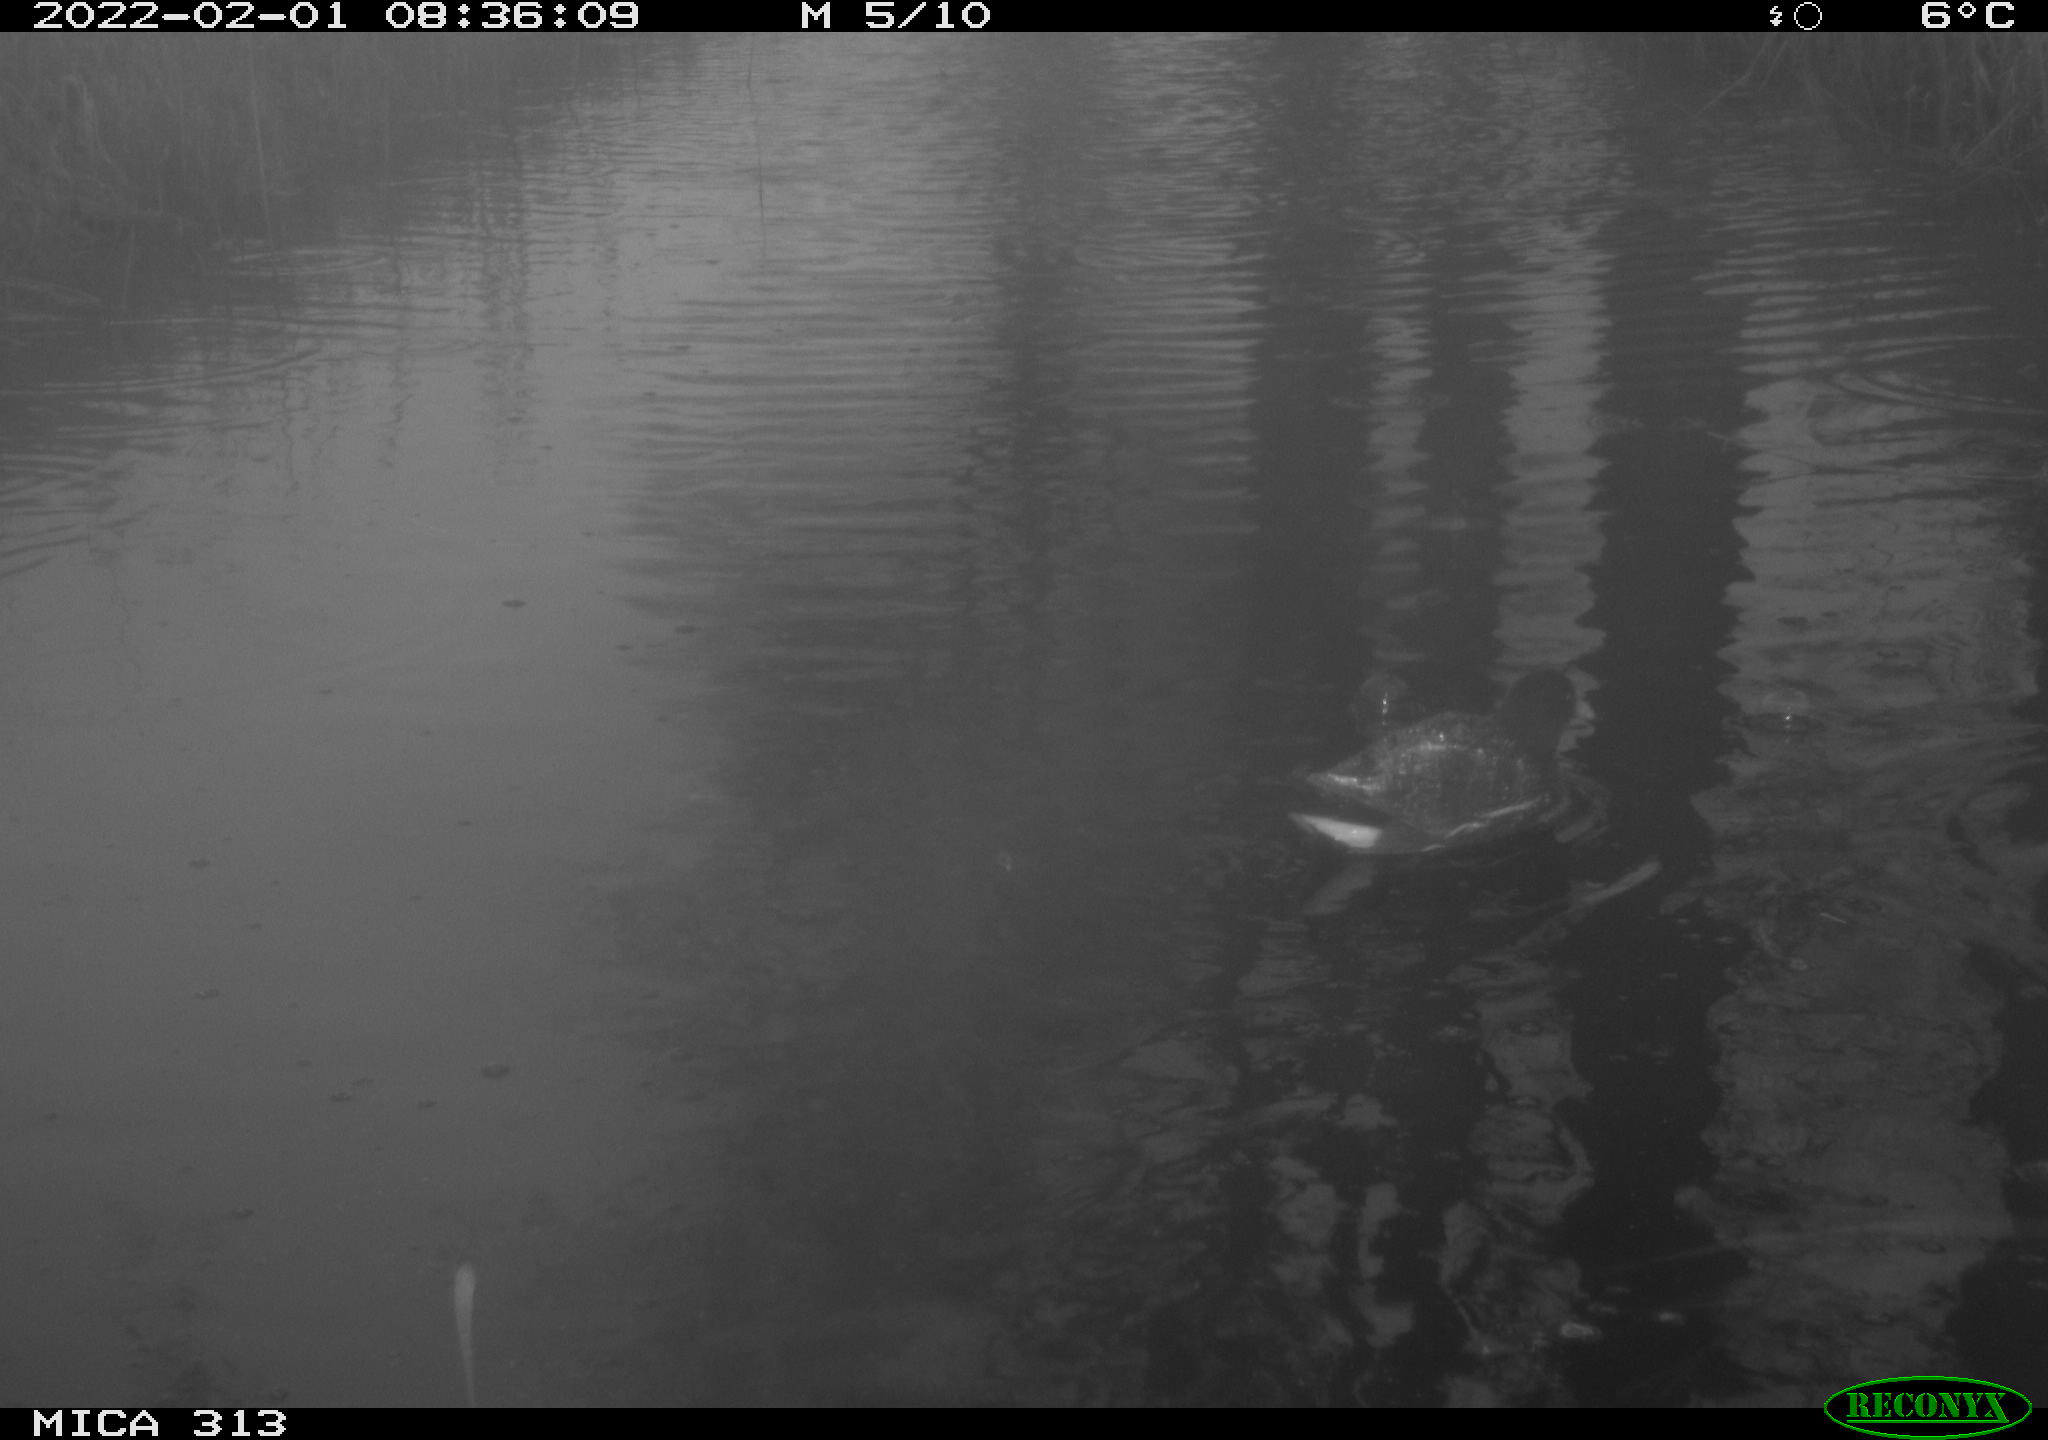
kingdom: Animalia
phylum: Chordata
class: Aves
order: Gruiformes
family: Rallidae
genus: Gallinula
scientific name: Gallinula chloropus
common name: Common moorhen
